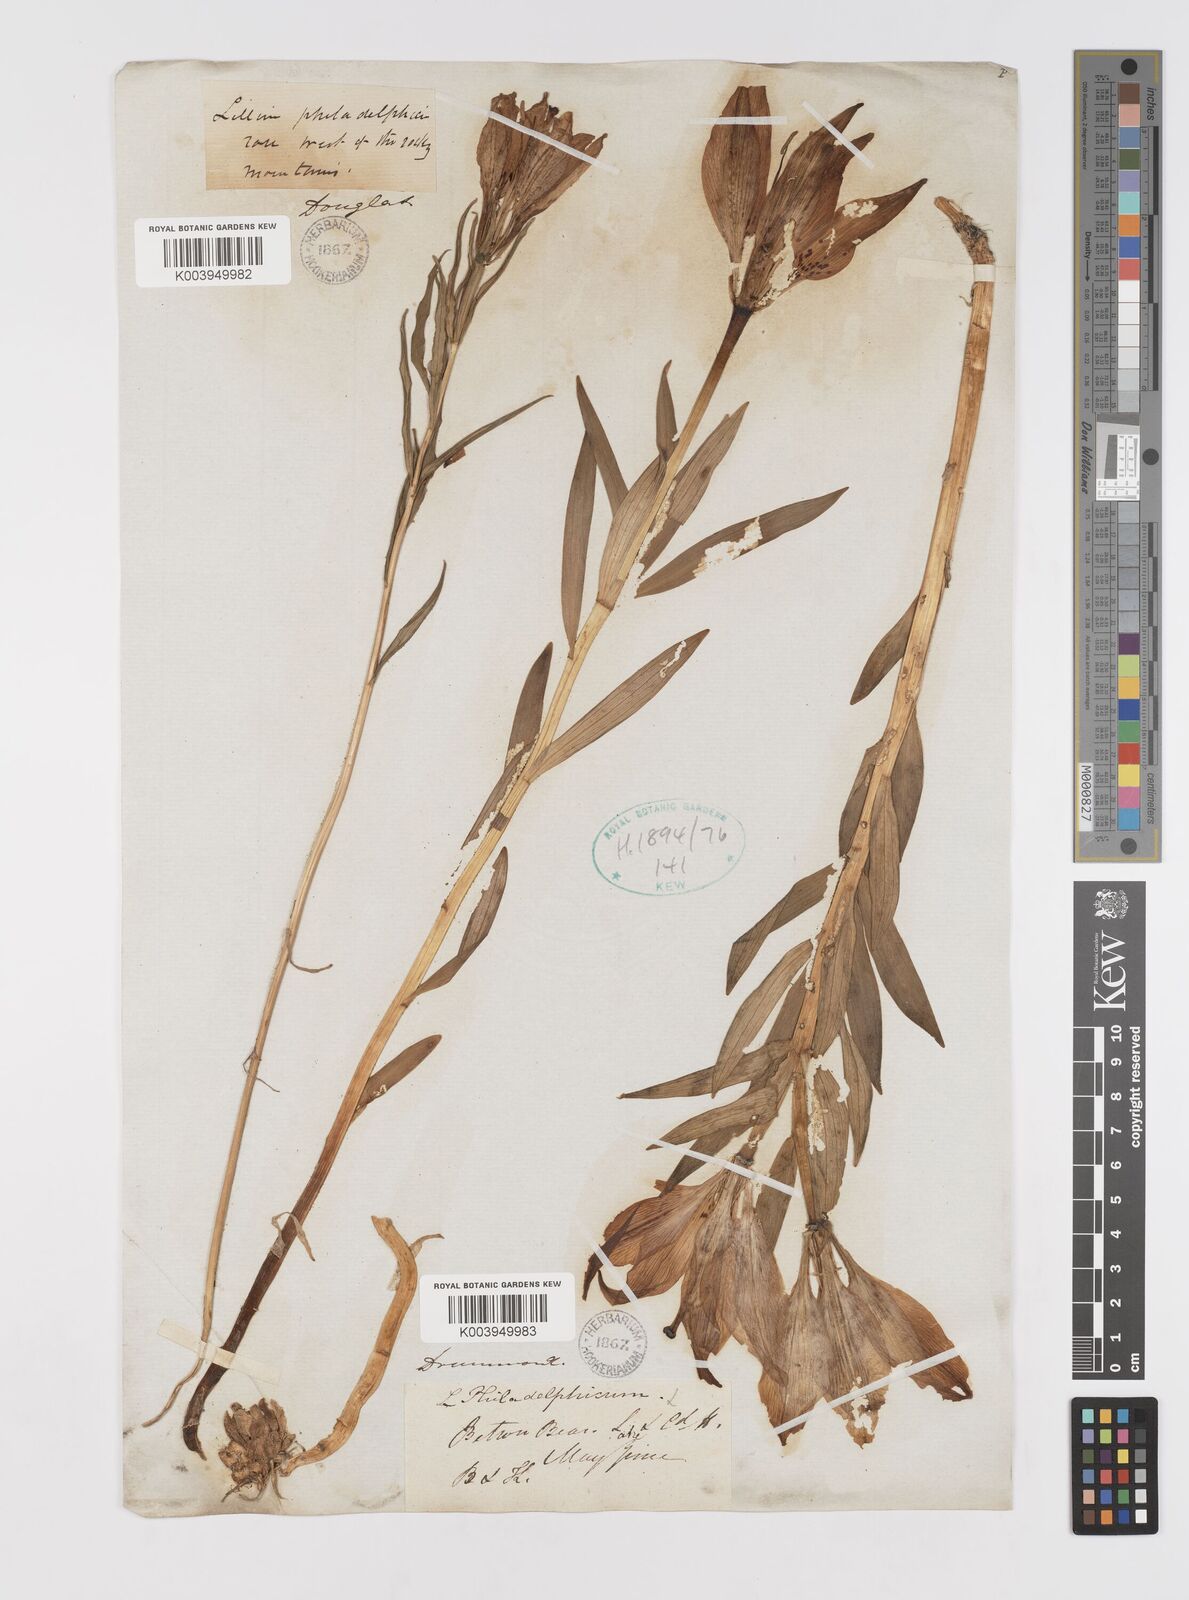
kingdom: Plantae
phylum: Tracheophyta
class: Liliopsida
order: Liliales
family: Liliaceae
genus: Lilium
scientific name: Lilium philadelphicum
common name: Red lily
